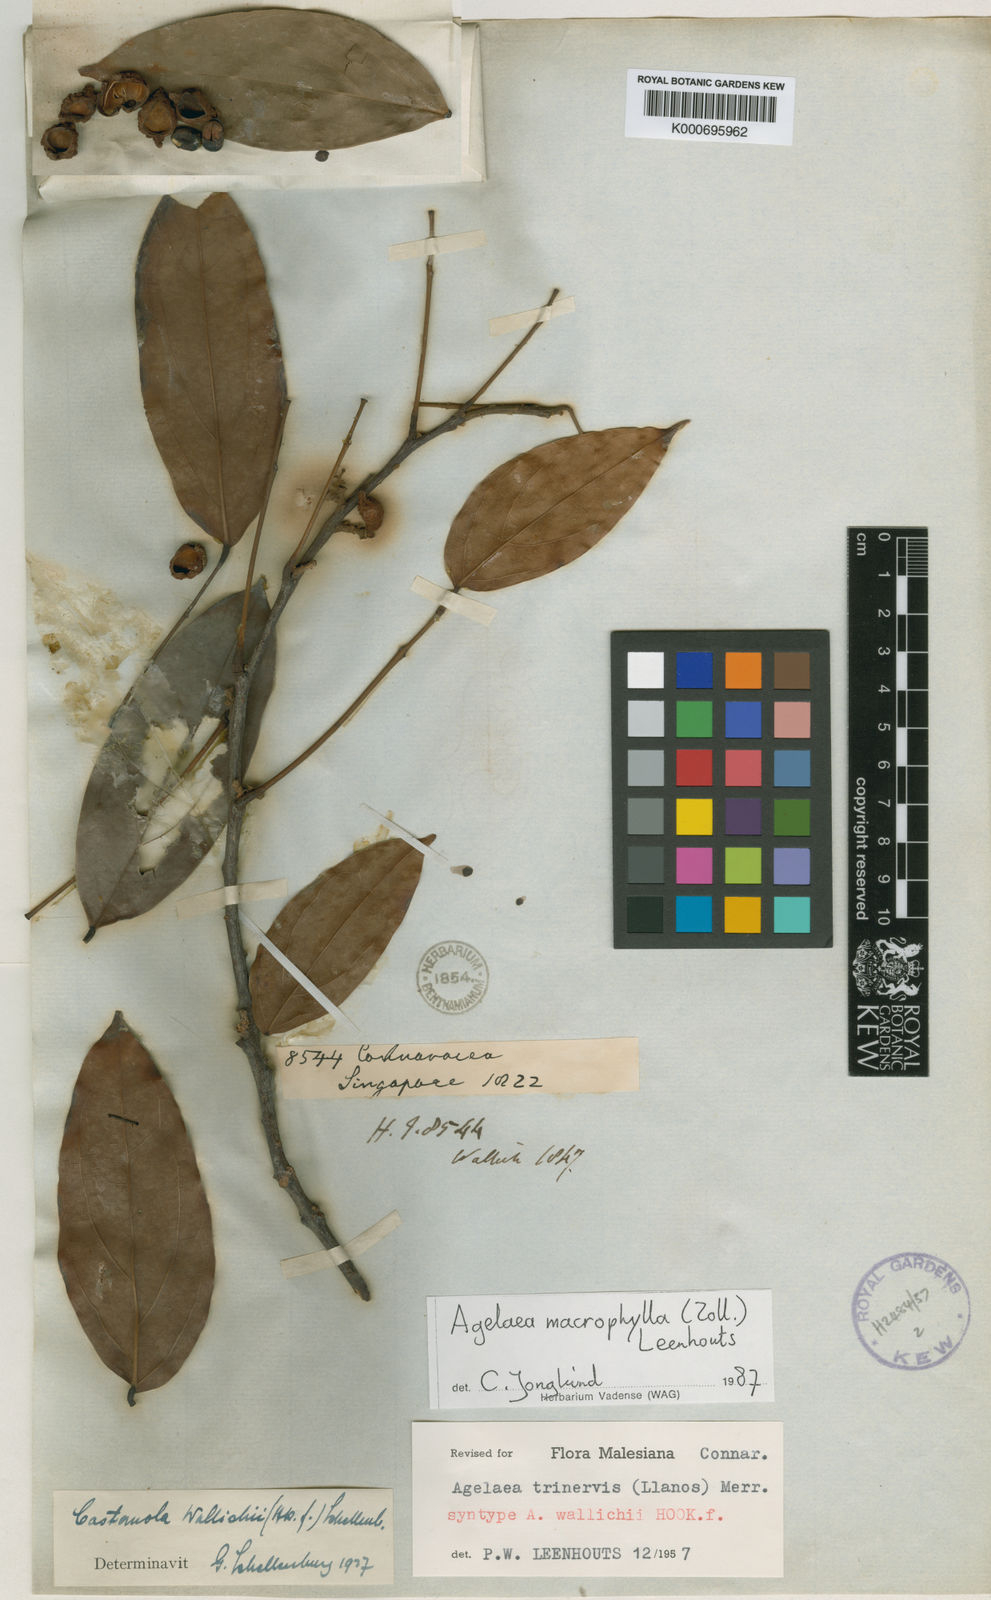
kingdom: Plantae
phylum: Tracheophyta
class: Magnoliopsida
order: Oxalidales
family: Connaraceae
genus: Agelaea
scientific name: Agelaea macrophylla
